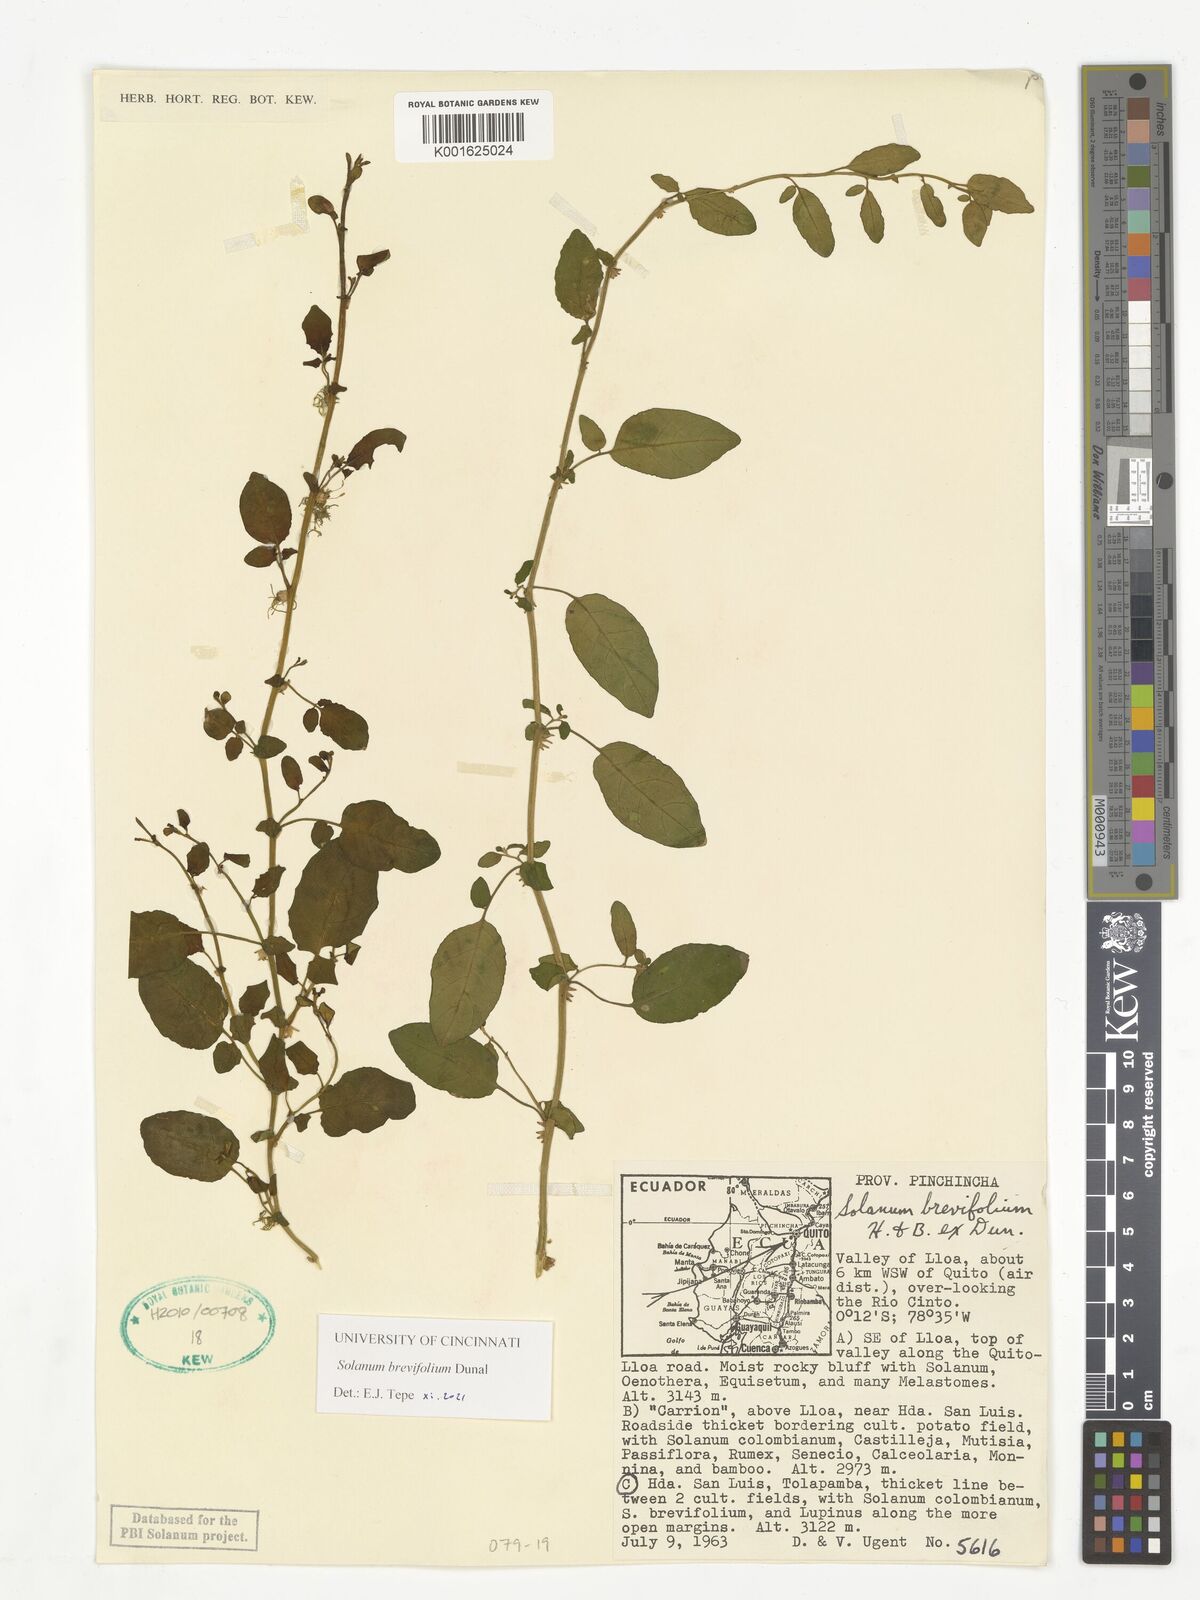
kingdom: Plantae
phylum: Tracheophyta
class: Magnoliopsida
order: Solanales
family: Solanaceae
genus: Solanum
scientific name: Solanum brevifolium
